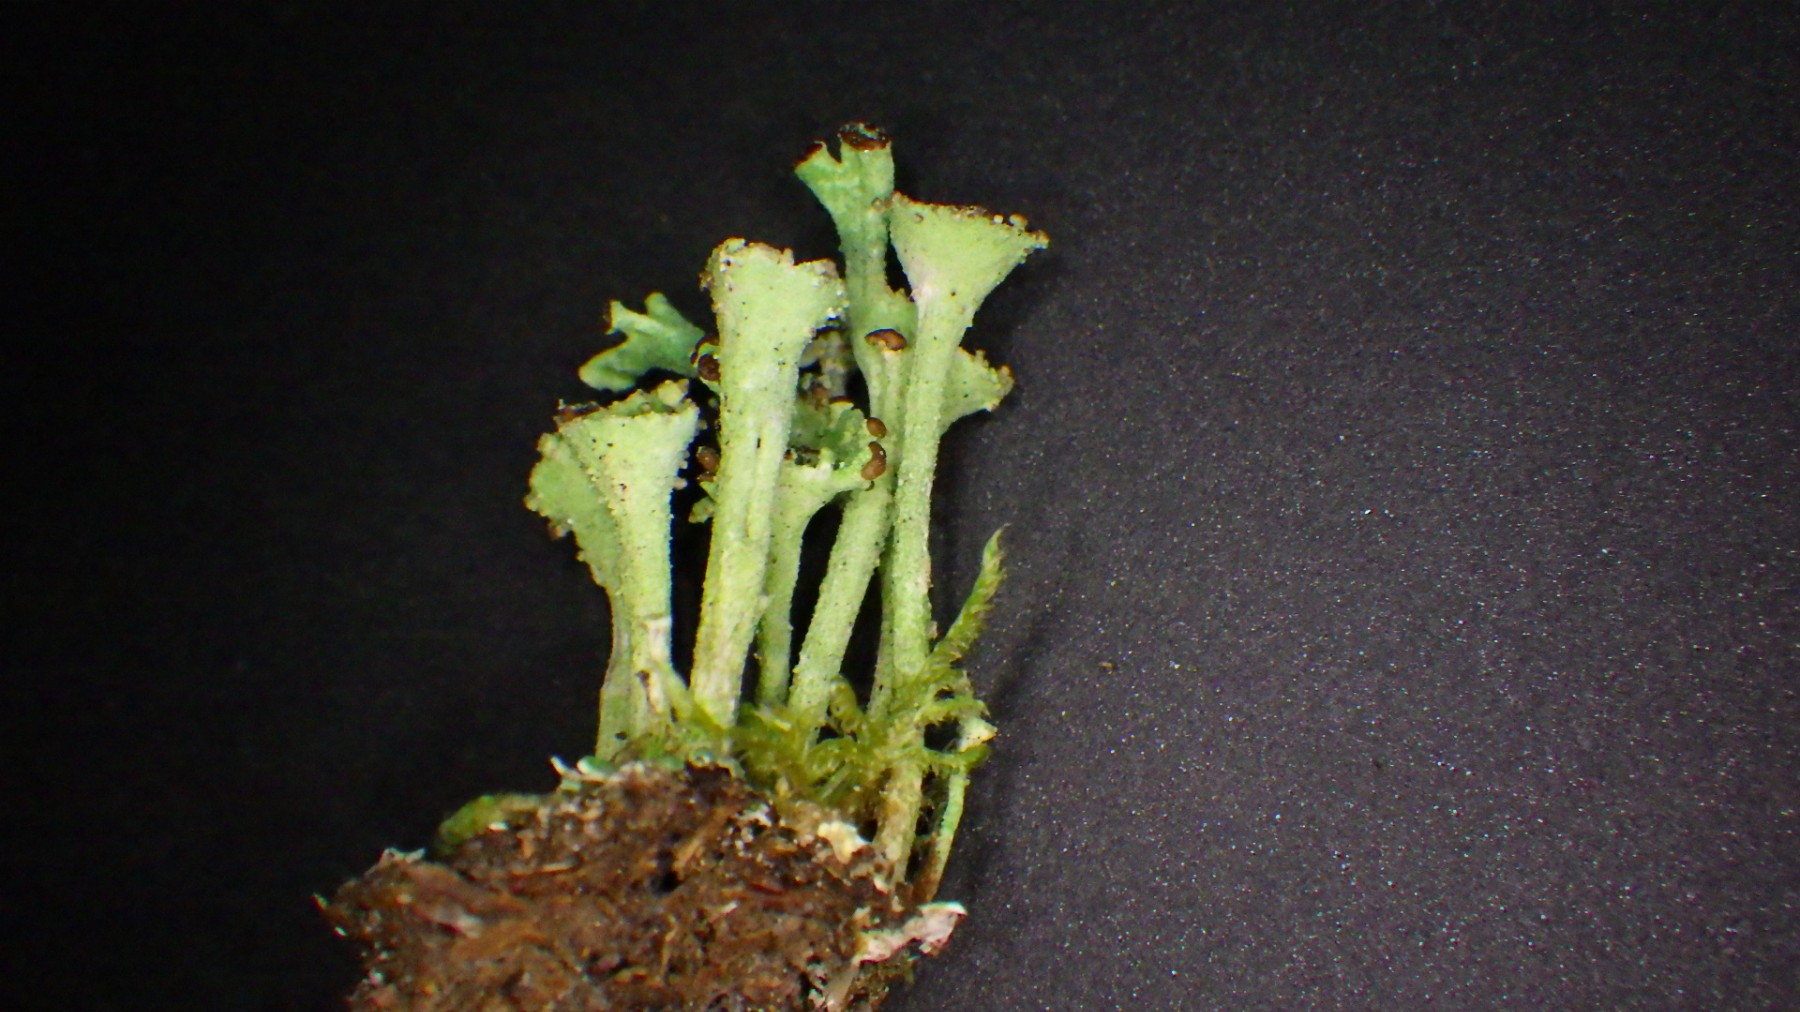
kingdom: Fungi
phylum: Ascomycota
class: Lecanoromycetes
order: Lecanorales
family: Cladoniaceae
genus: Cladonia
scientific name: Cladonia fimbriata
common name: bleggrøn bægerlav
